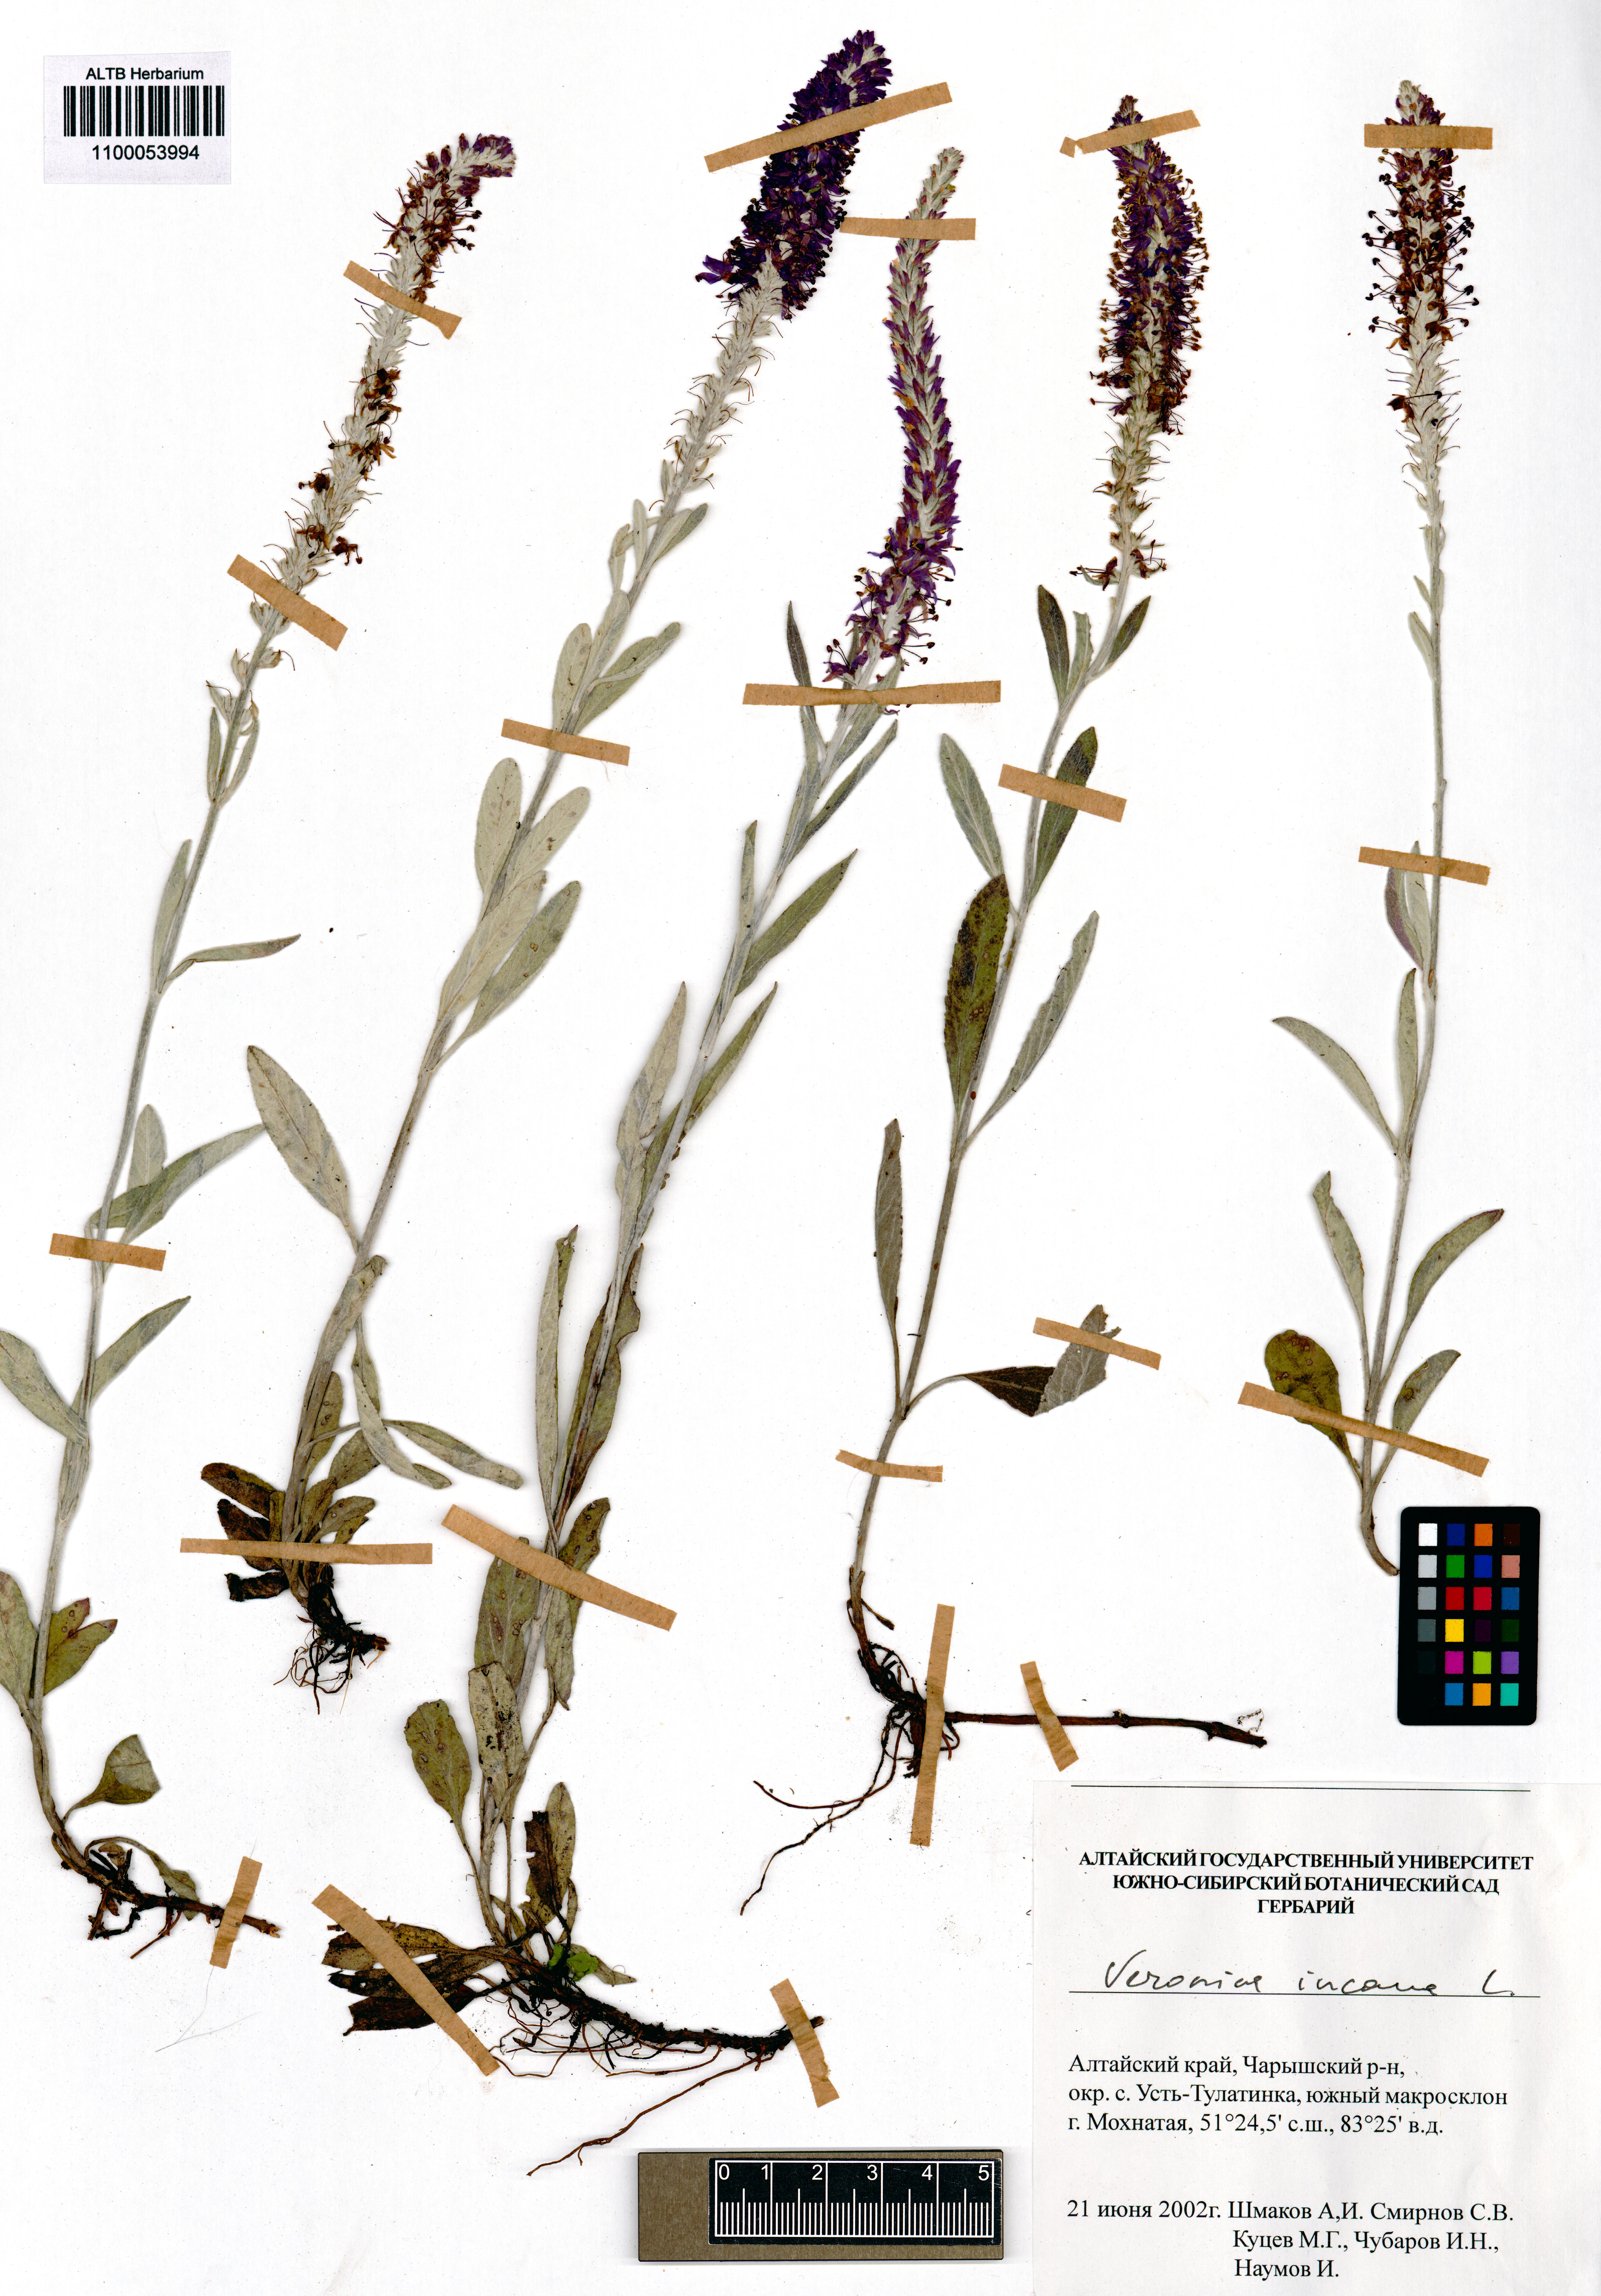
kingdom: Plantae
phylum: Tracheophyta
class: Magnoliopsida
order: Lamiales
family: Plantaginaceae
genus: Veronica
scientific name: Veronica incana
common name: Silver speedwell
